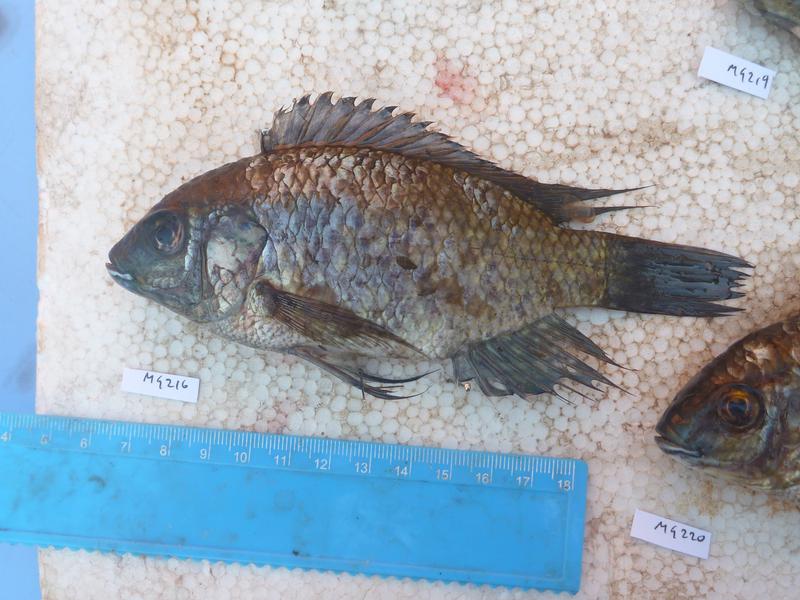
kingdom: Animalia
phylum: Chordata
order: Perciformes
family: Cichlidae
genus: Oreochromis
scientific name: Oreochromis leucostictus
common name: Blue spotted tilapia
